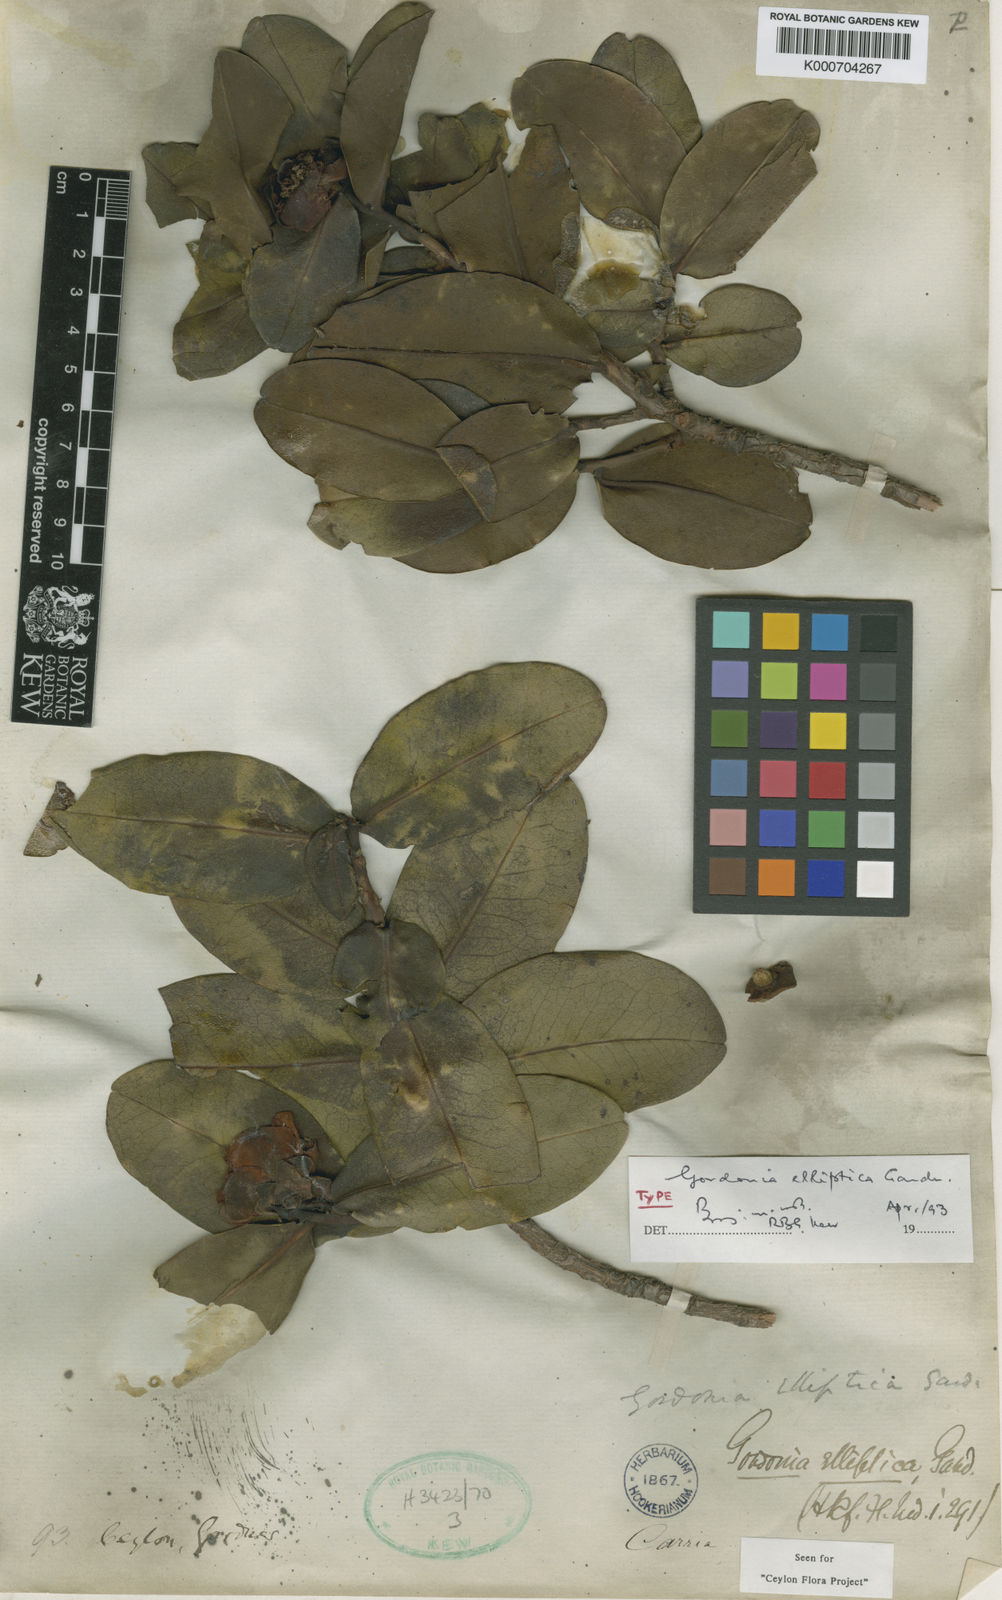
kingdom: Plantae
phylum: Tracheophyta
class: Magnoliopsida
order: Ericales
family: Theaceae
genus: Polyspora
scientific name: Polyspora elliptica
